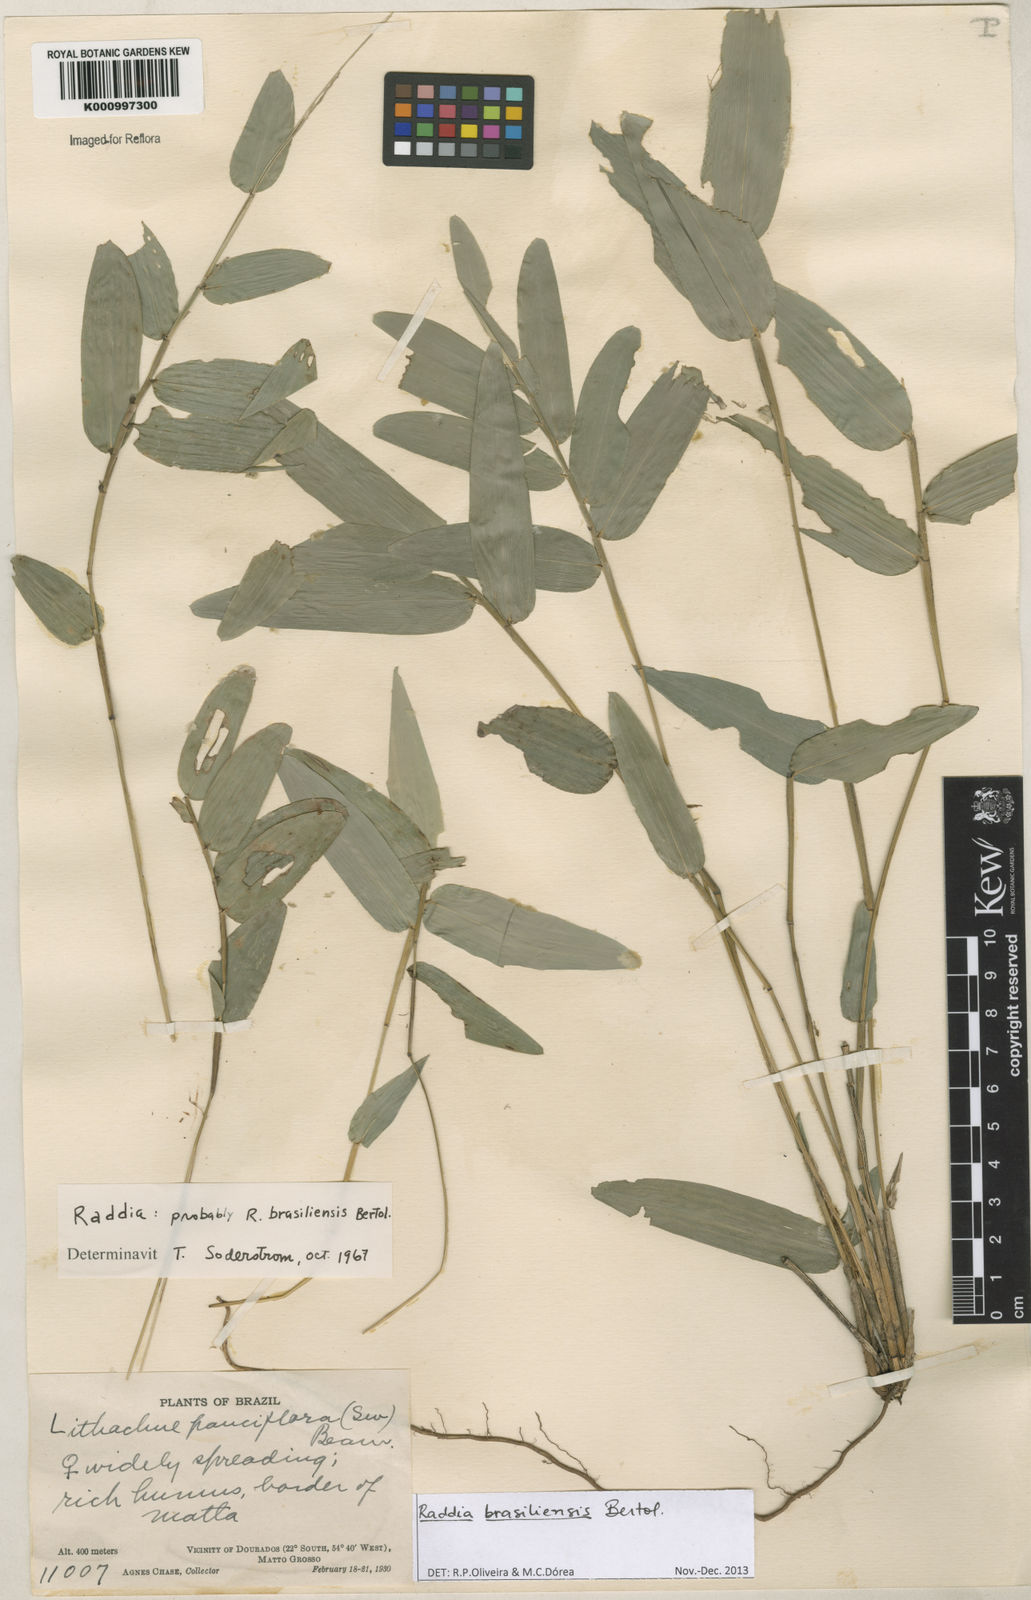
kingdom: Plantae
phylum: Tracheophyta
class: Liliopsida
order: Poales
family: Poaceae
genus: Raddia
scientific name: Raddia brasiliensis
